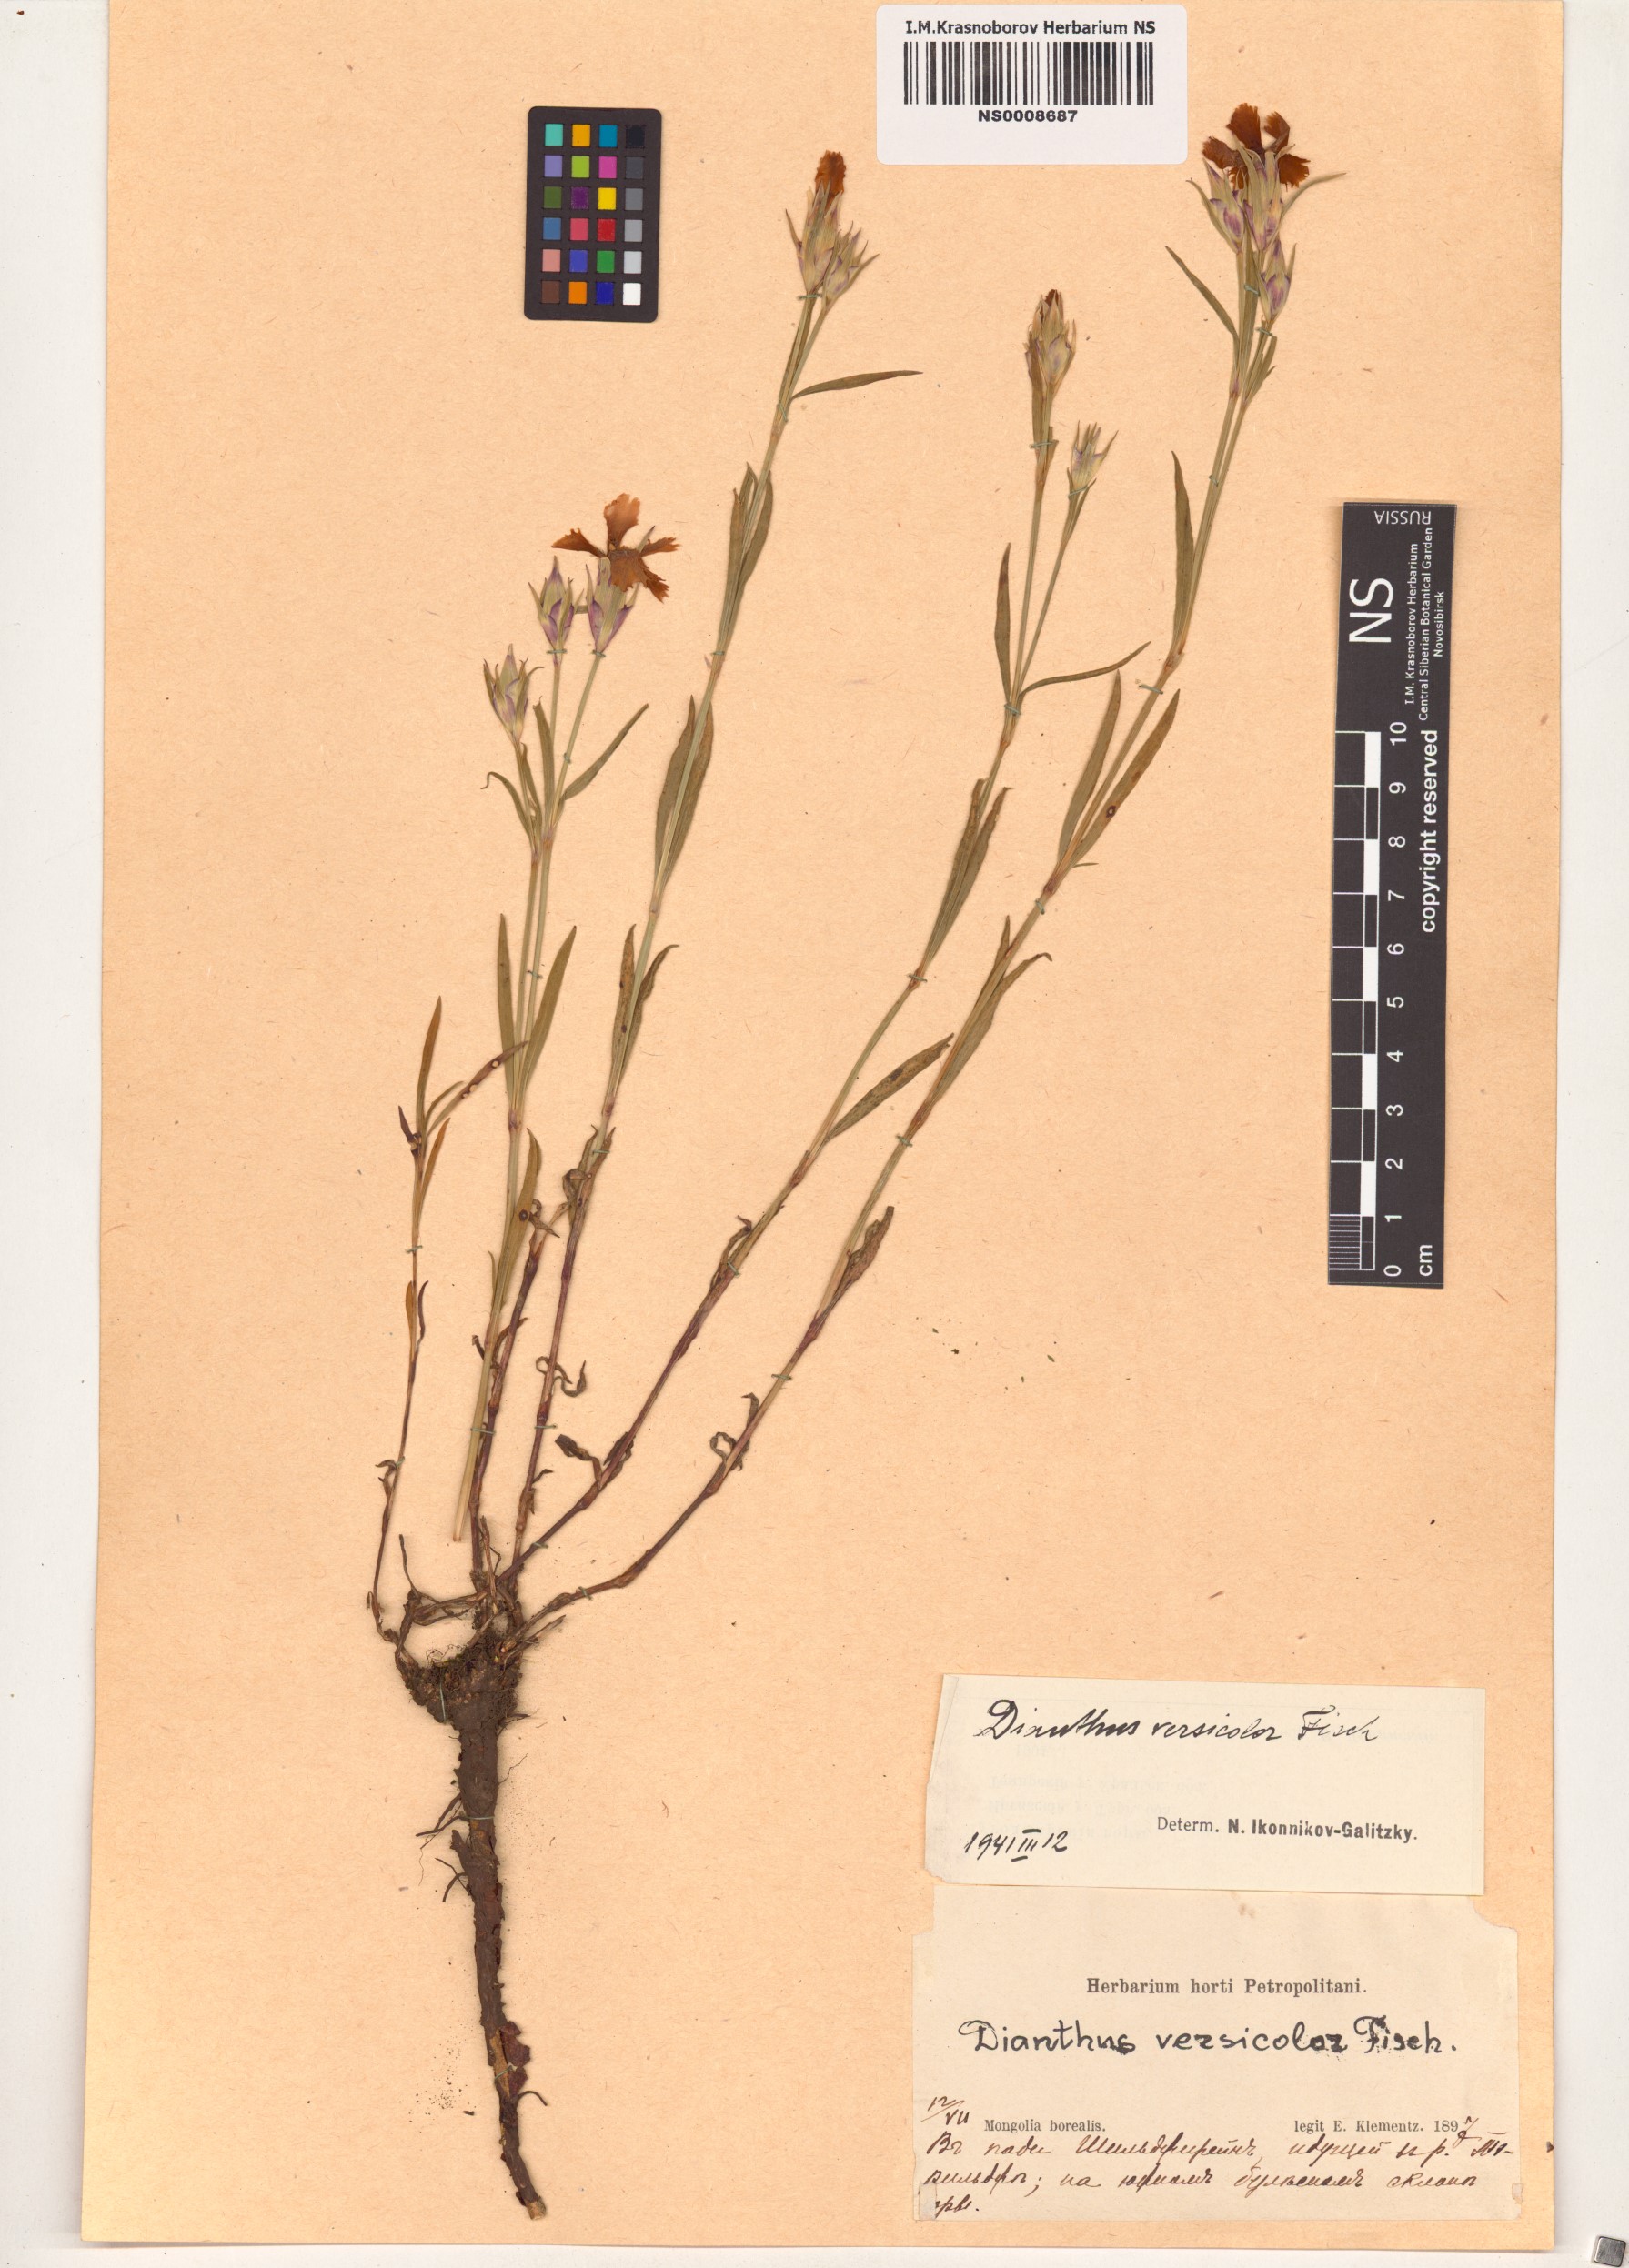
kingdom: Plantae
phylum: Tracheophyta
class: Magnoliopsida
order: Caryophyllales
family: Caryophyllaceae
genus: Dianthus
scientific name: Dianthus chinensis
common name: Rainbow pink
